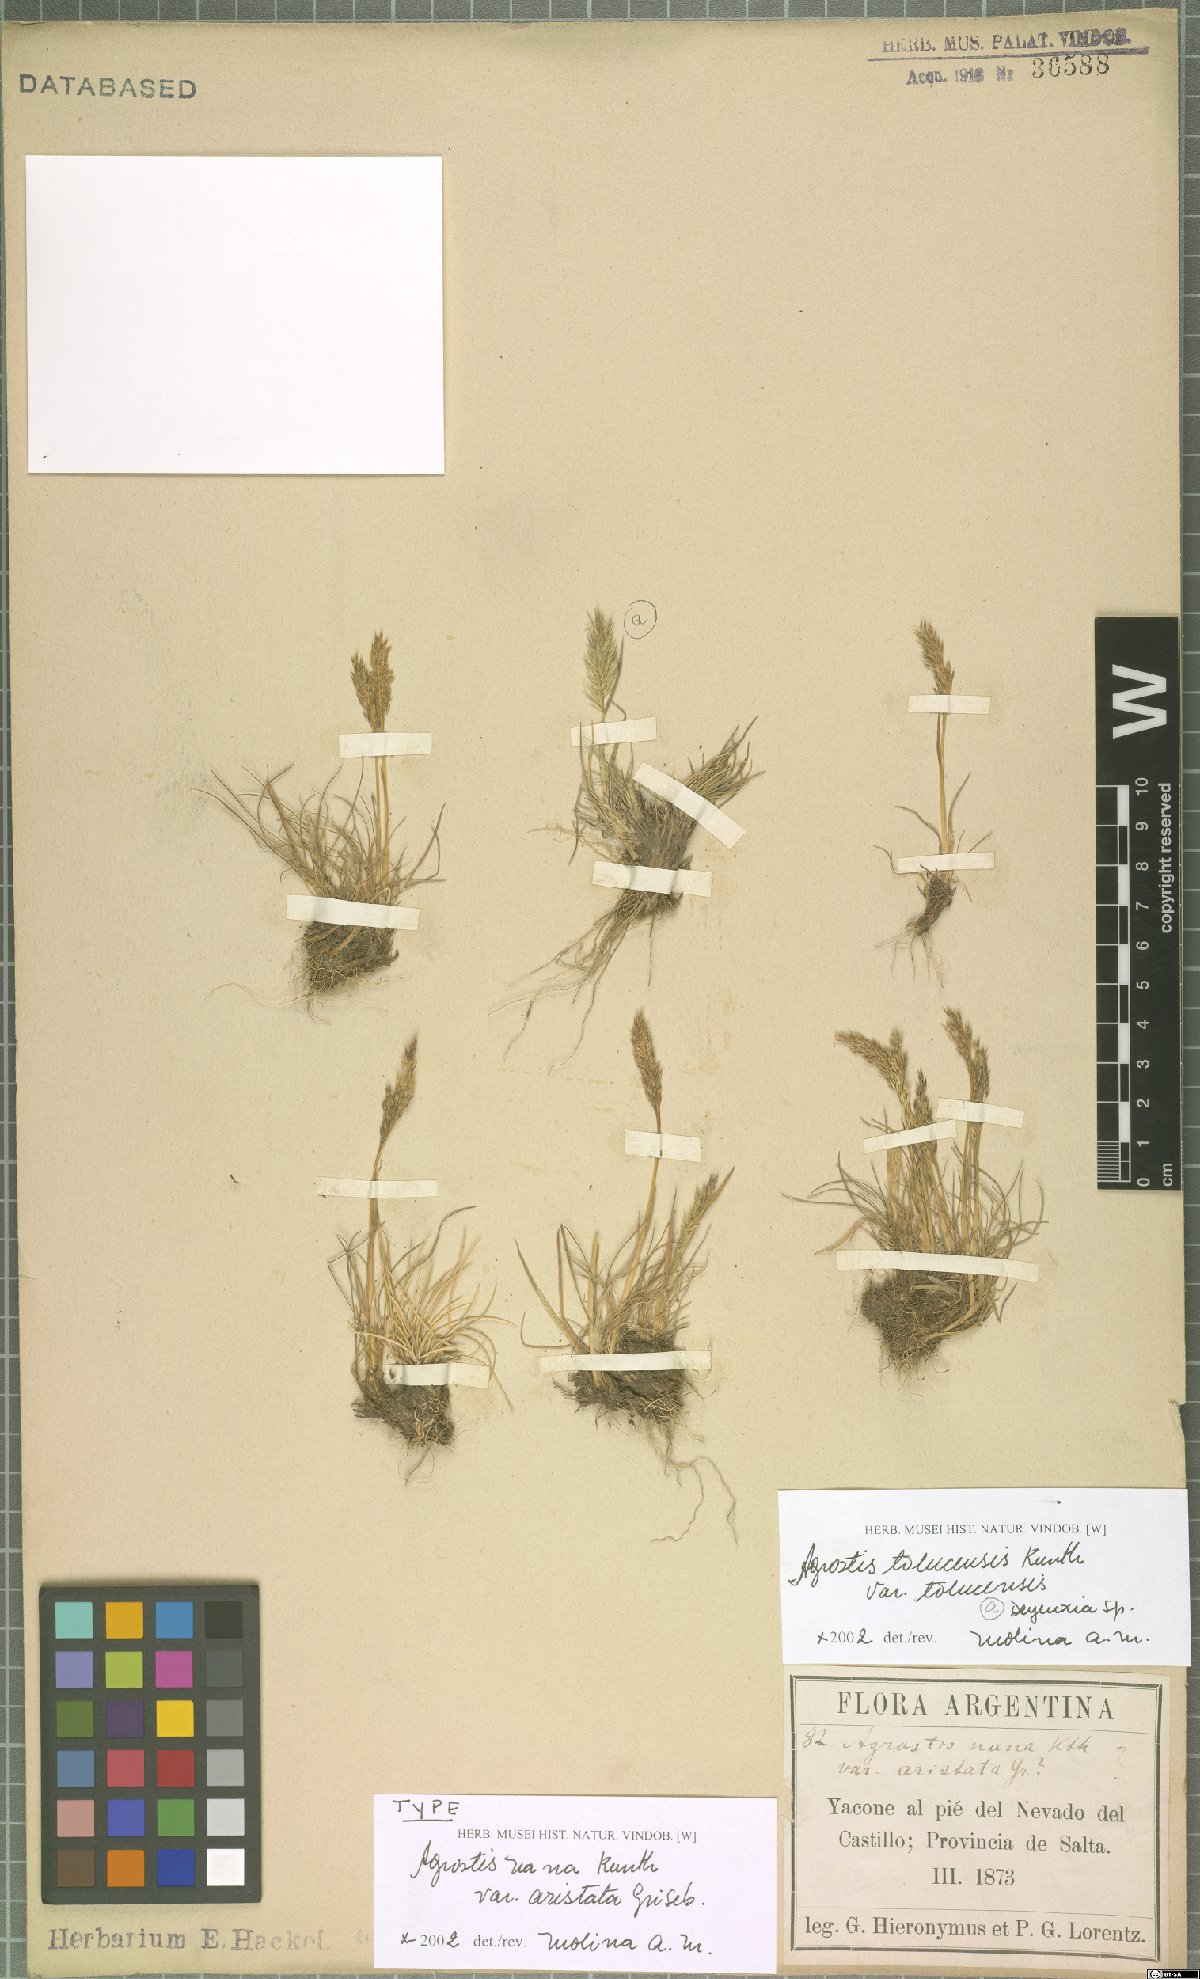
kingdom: Plantae
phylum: Tracheophyta
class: Liliopsida
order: Poales
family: Poaceae
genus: Agrostis
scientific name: Agrostis tolucensis
